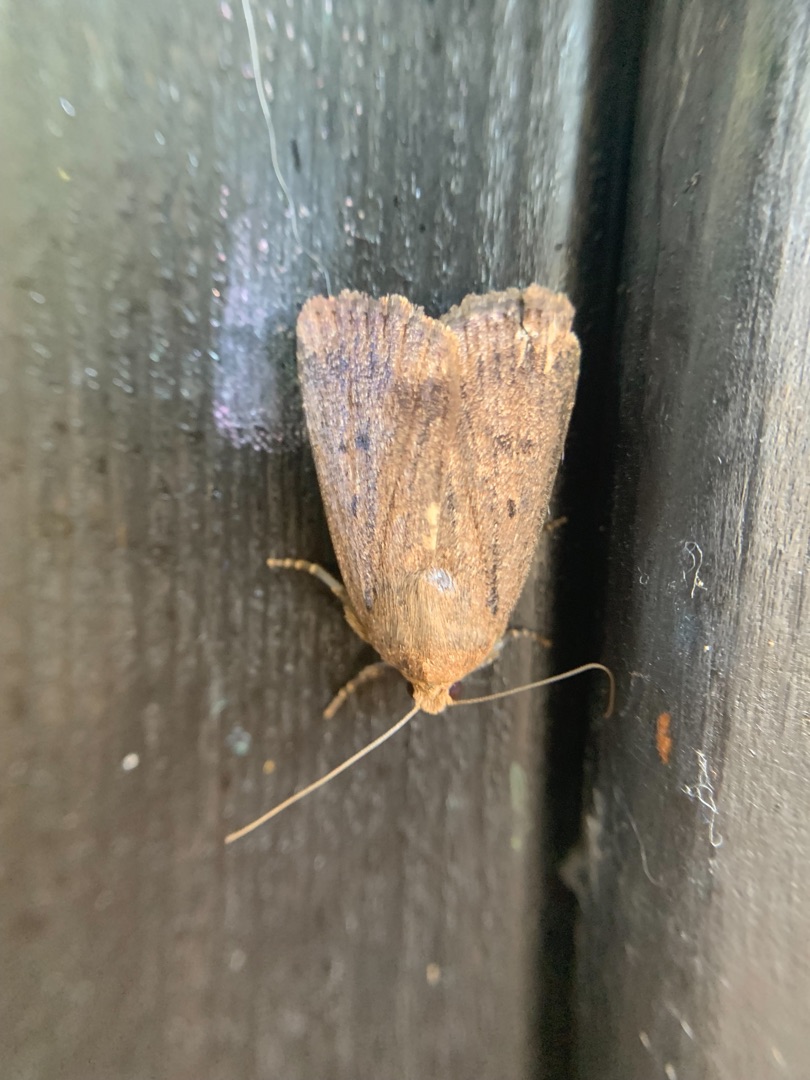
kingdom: Animalia
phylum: Arthropoda
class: Insecta
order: Lepidoptera
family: Noctuidae
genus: Amphipyra
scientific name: Amphipyra tragopoginis
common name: Blyantsugle
